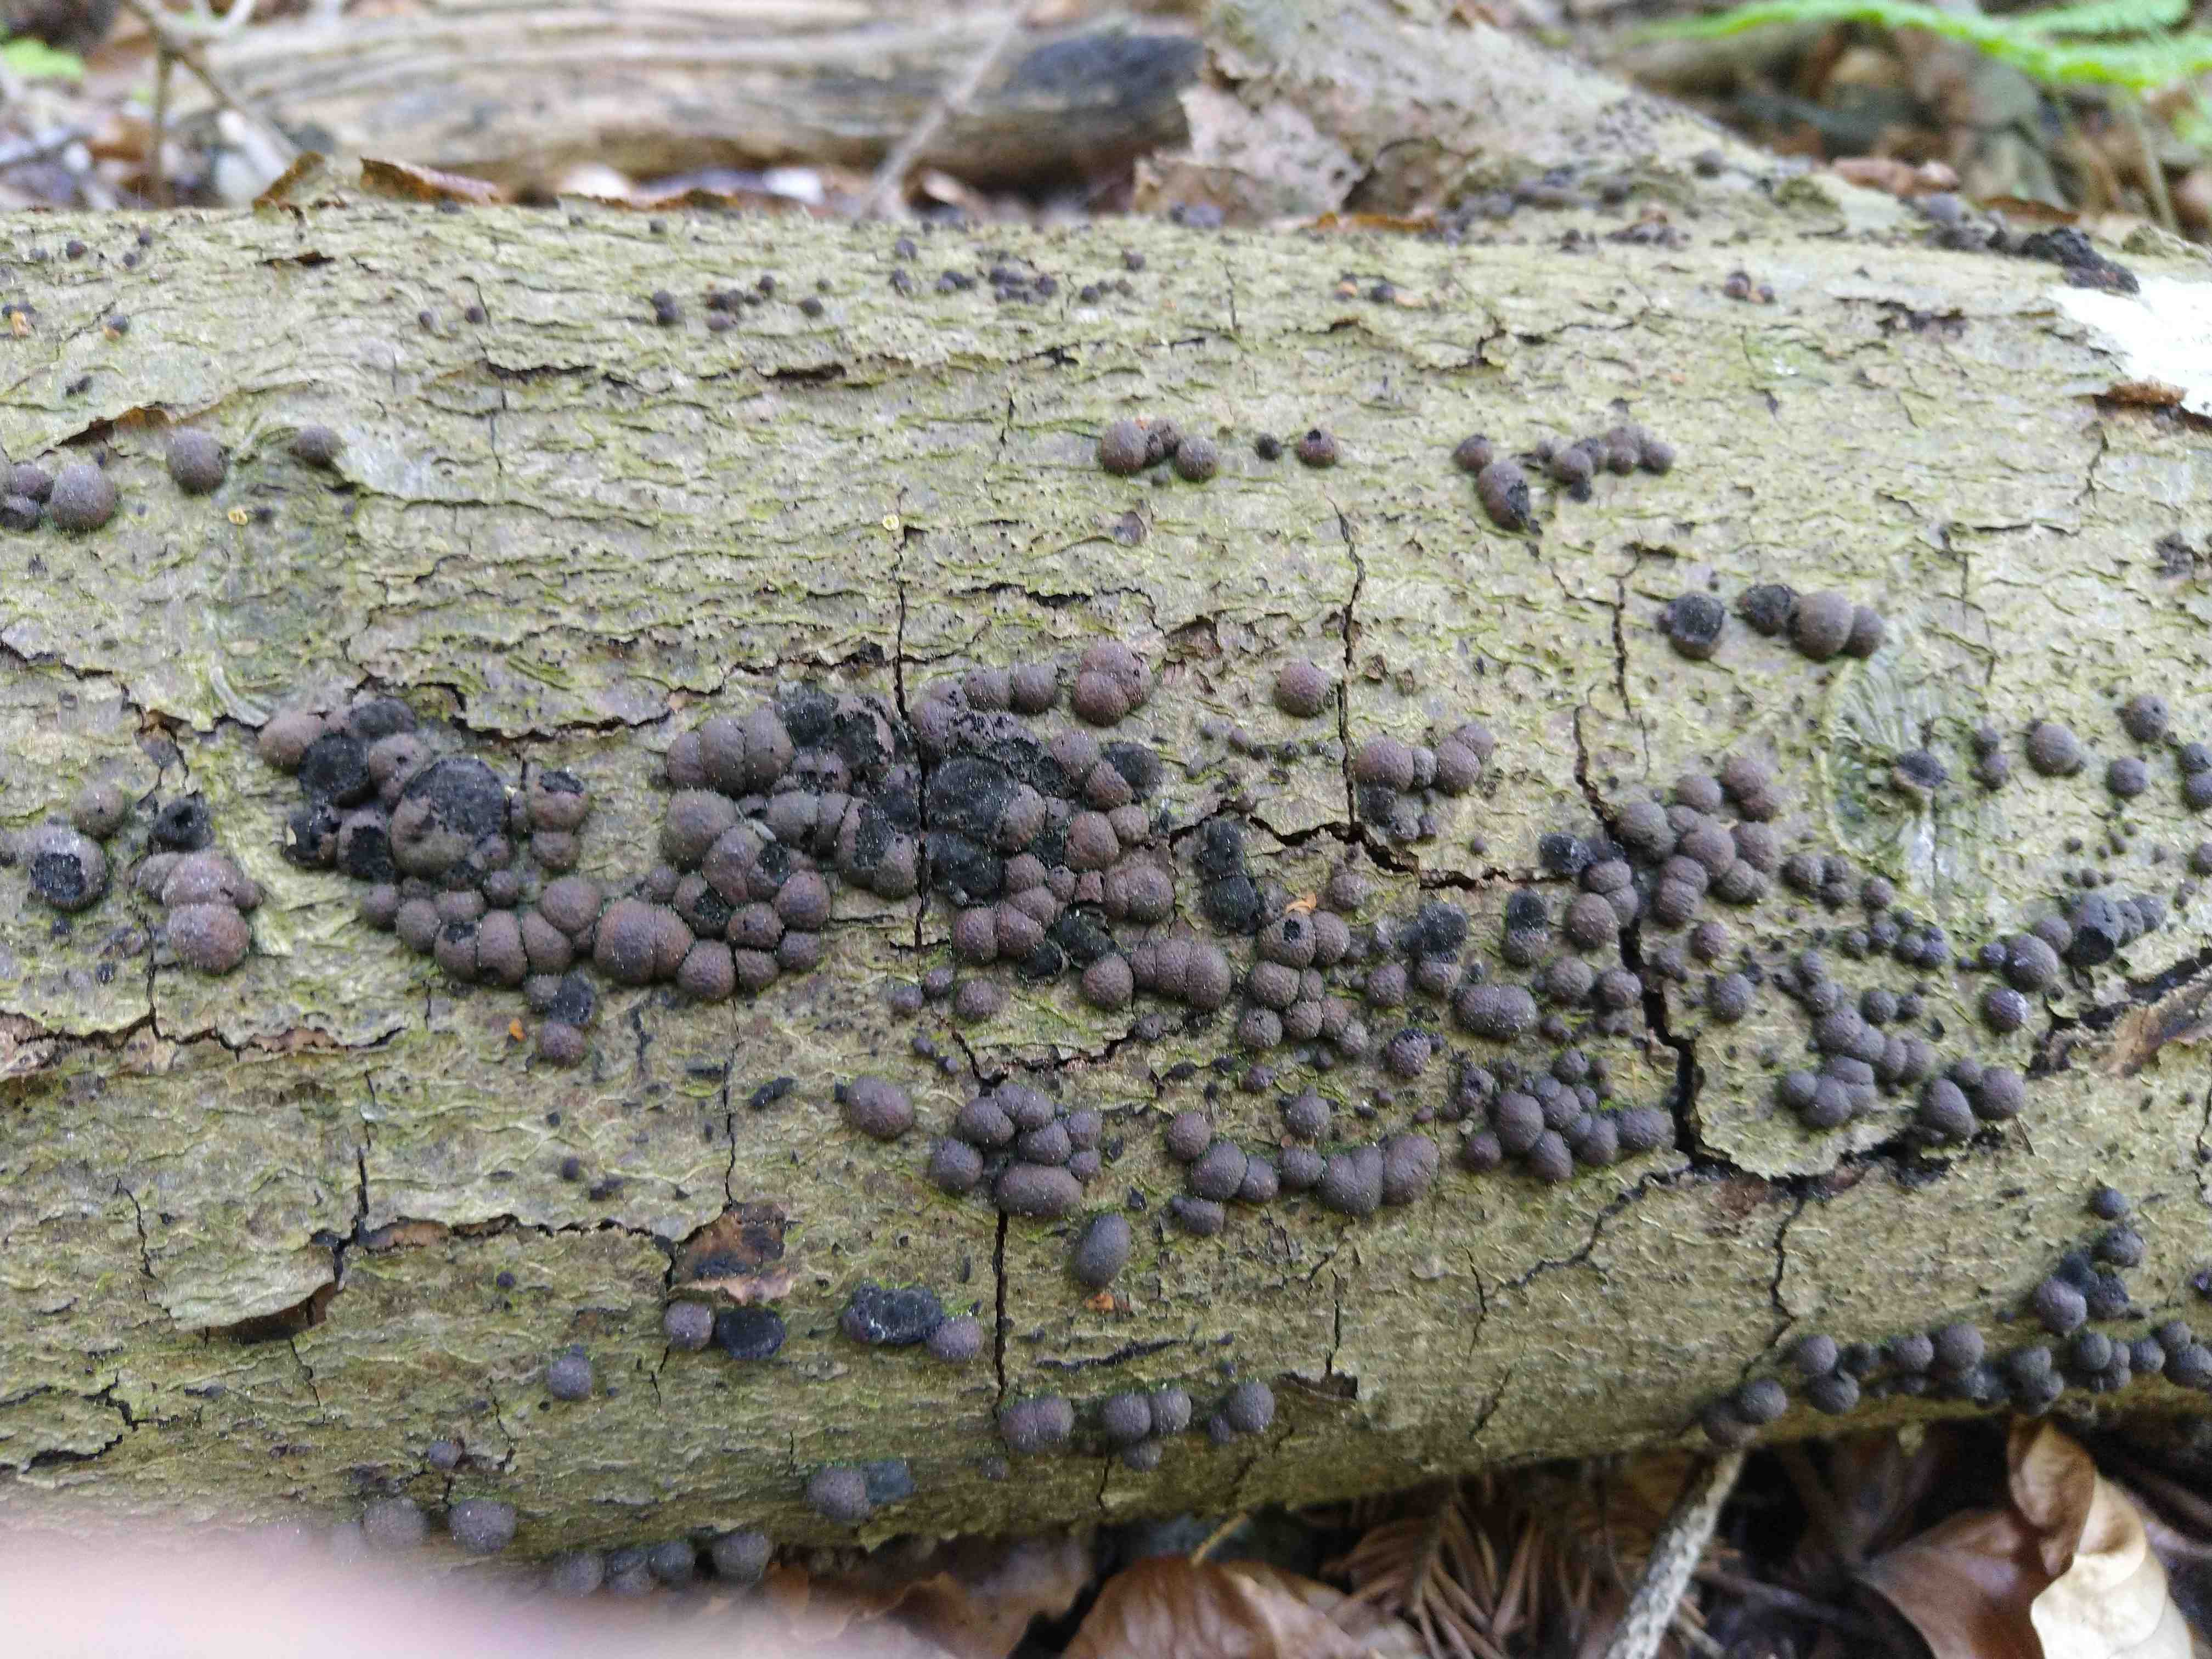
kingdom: Fungi
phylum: Ascomycota
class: Sordariomycetes
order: Xylariales
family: Hypoxylaceae
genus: Hypoxylon
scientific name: Hypoxylon fragiforme
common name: kuljordbær
